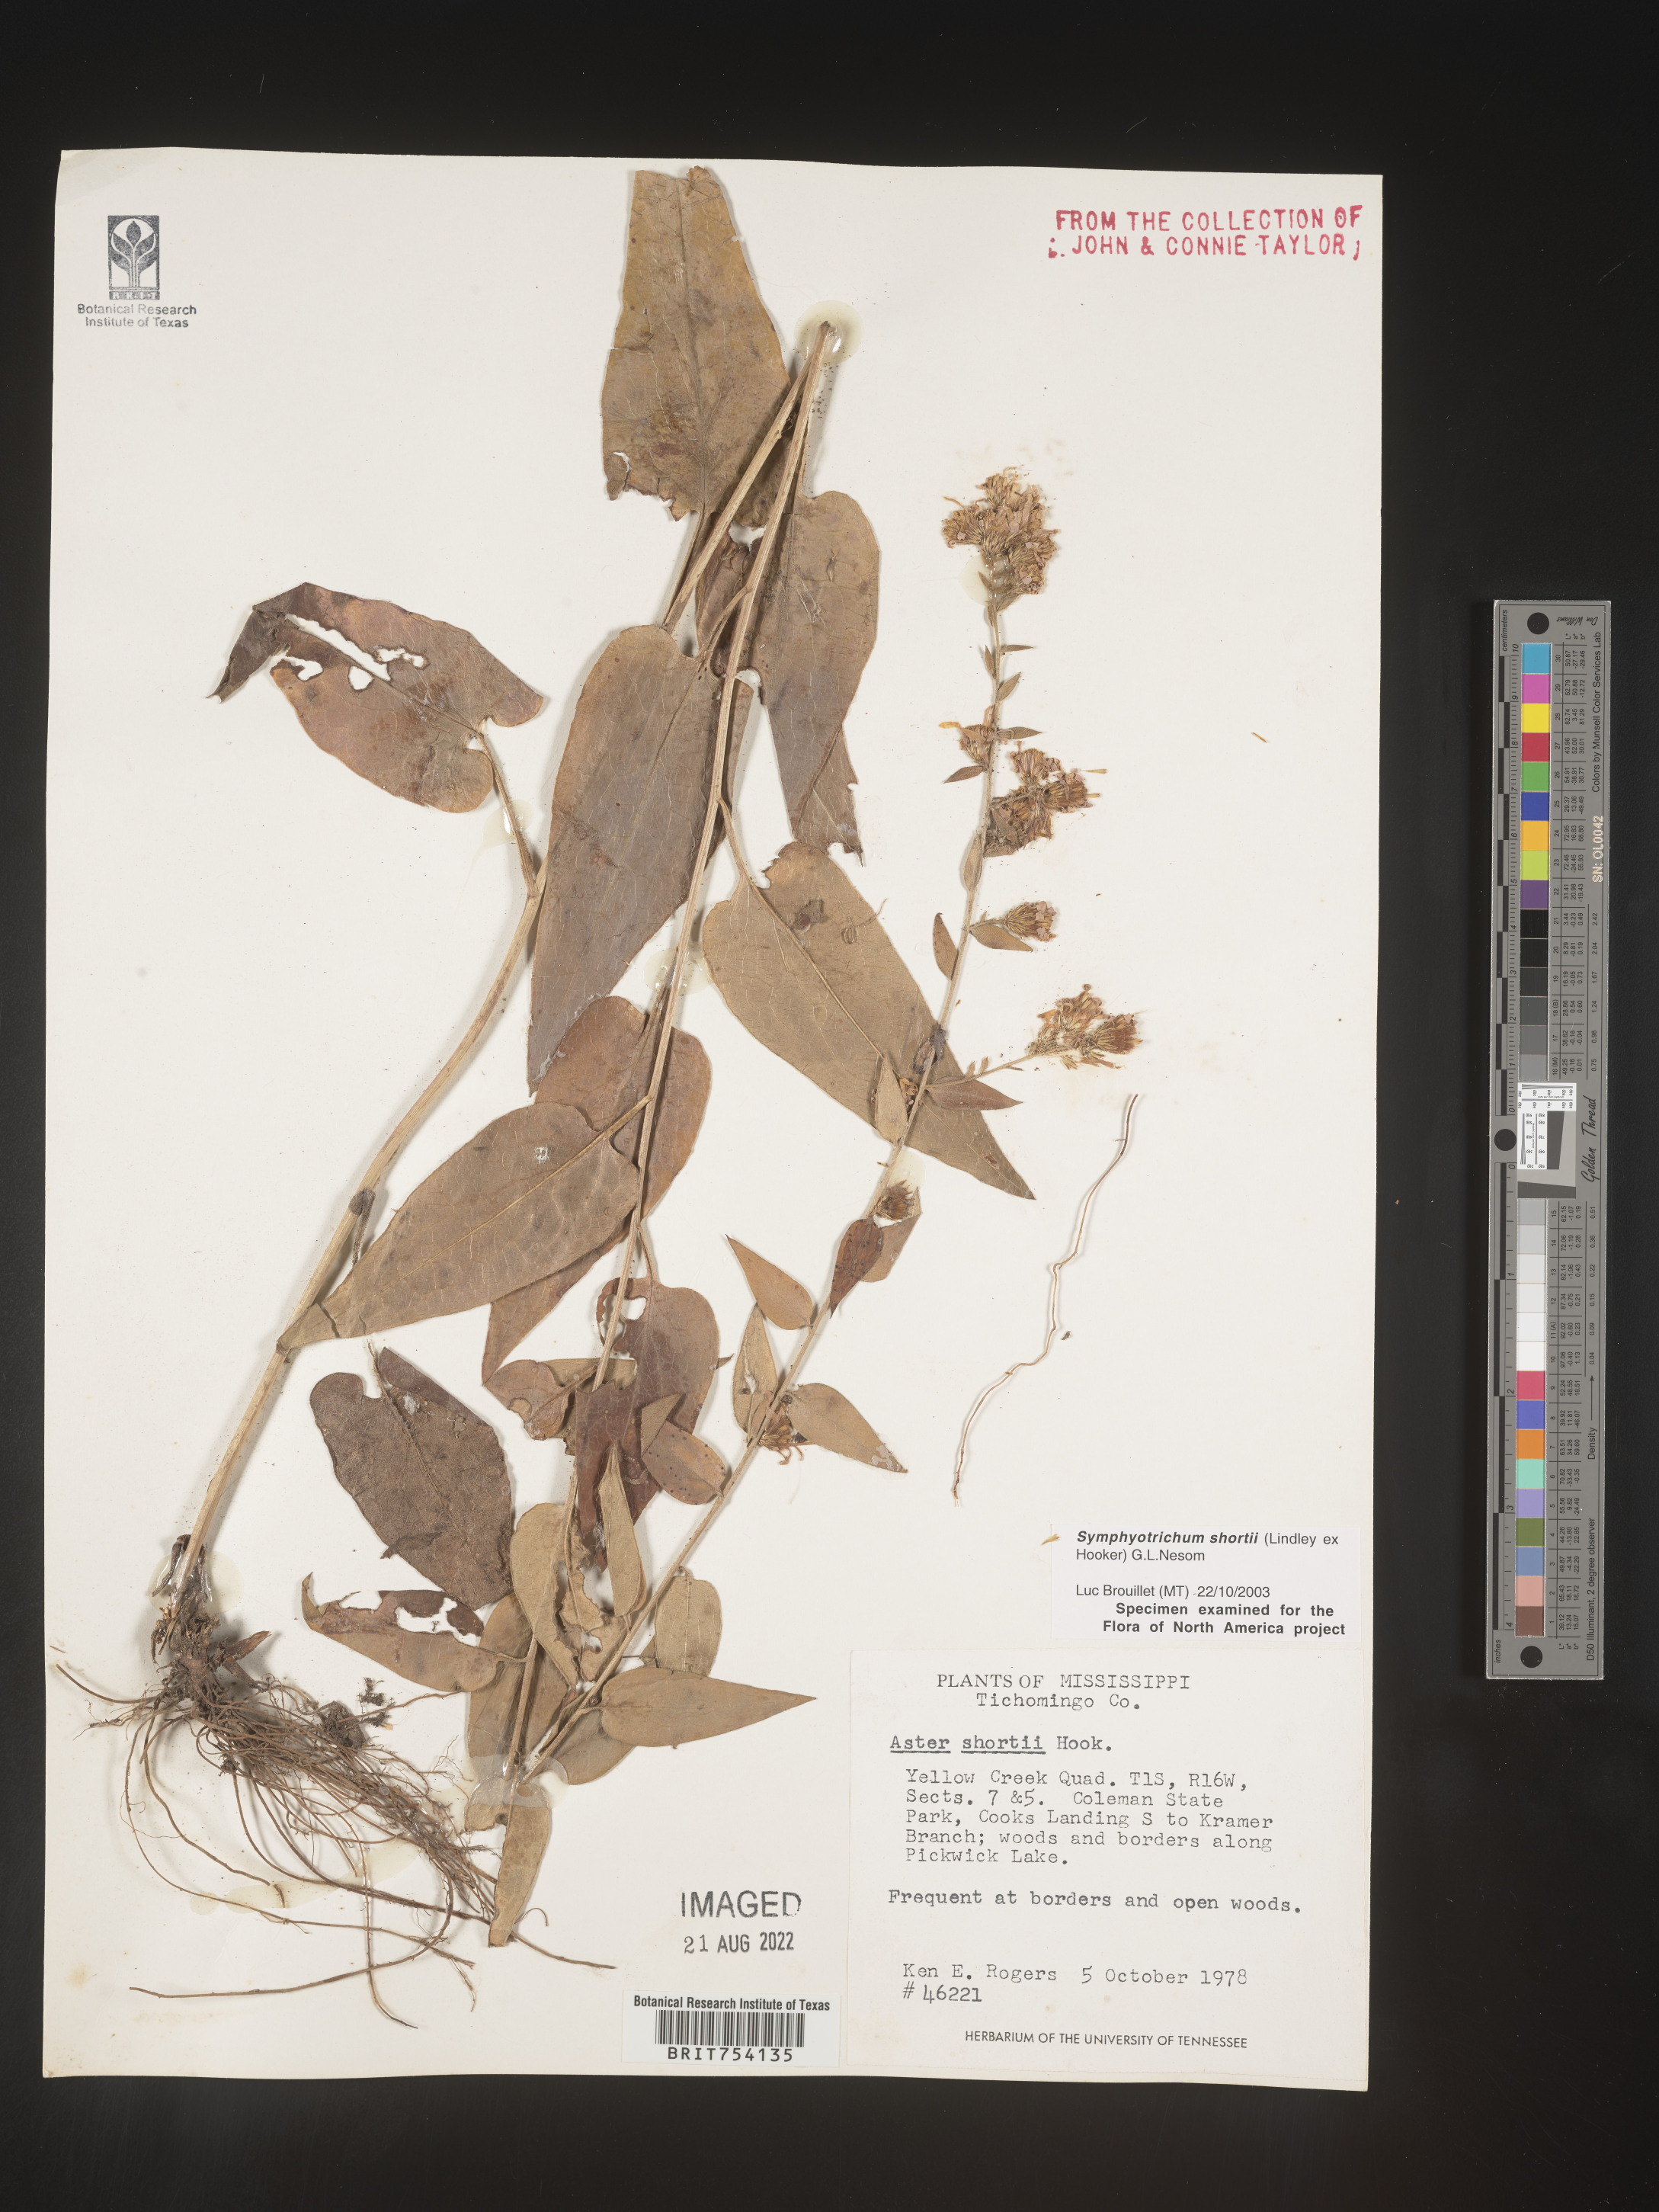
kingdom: Plantae
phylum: Tracheophyta
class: Magnoliopsida
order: Asterales
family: Asteraceae
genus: Symphyotrichum
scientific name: Symphyotrichum shortii
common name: Short's aster
